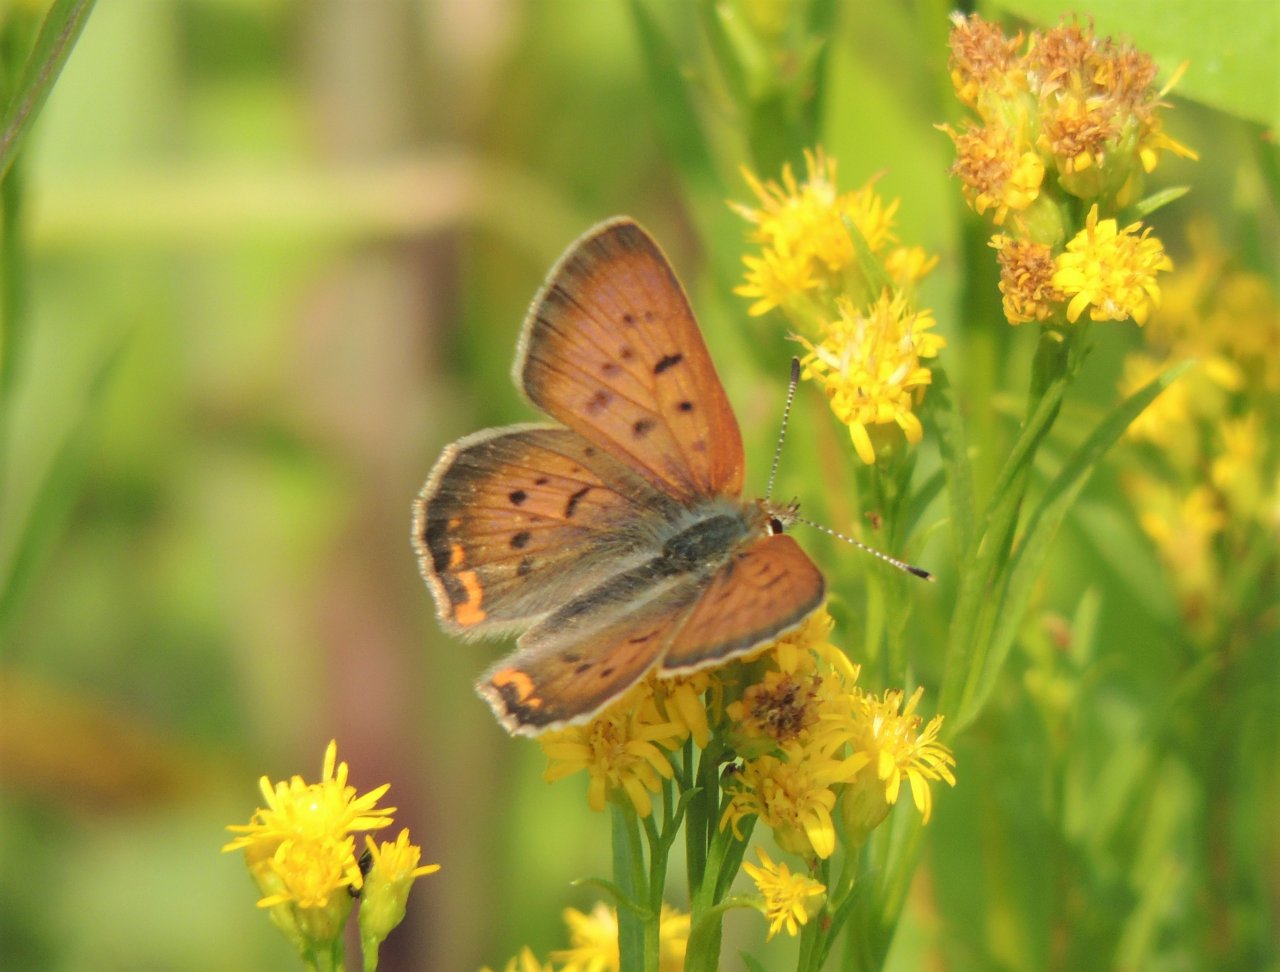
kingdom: Animalia
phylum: Arthropoda
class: Insecta
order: Lepidoptera
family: Sesiidae
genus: Sesia
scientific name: Sesia Lycaena helloides
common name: Purplish Copper
